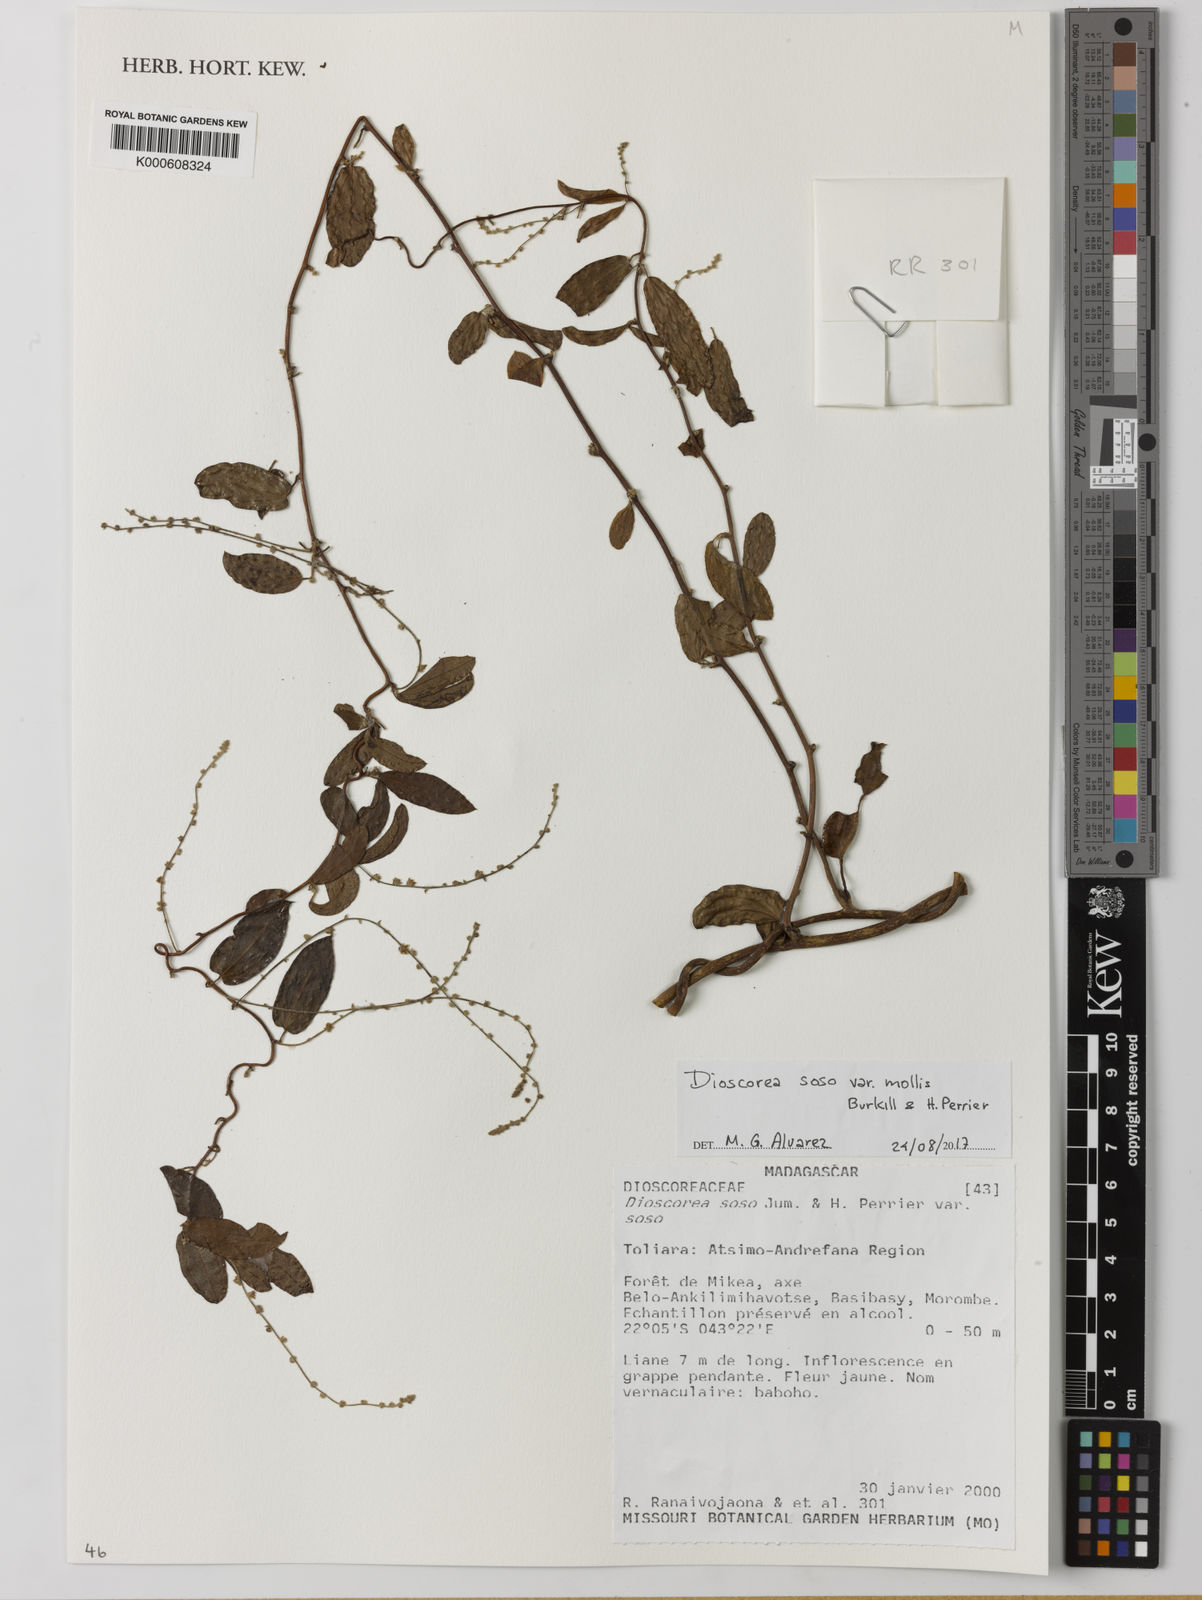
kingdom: Plantae
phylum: Tracheophyta
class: Liliopsida
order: Dioscoreales
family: Dioscoreaceae
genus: Dioscorea
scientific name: Dioscorea soso
